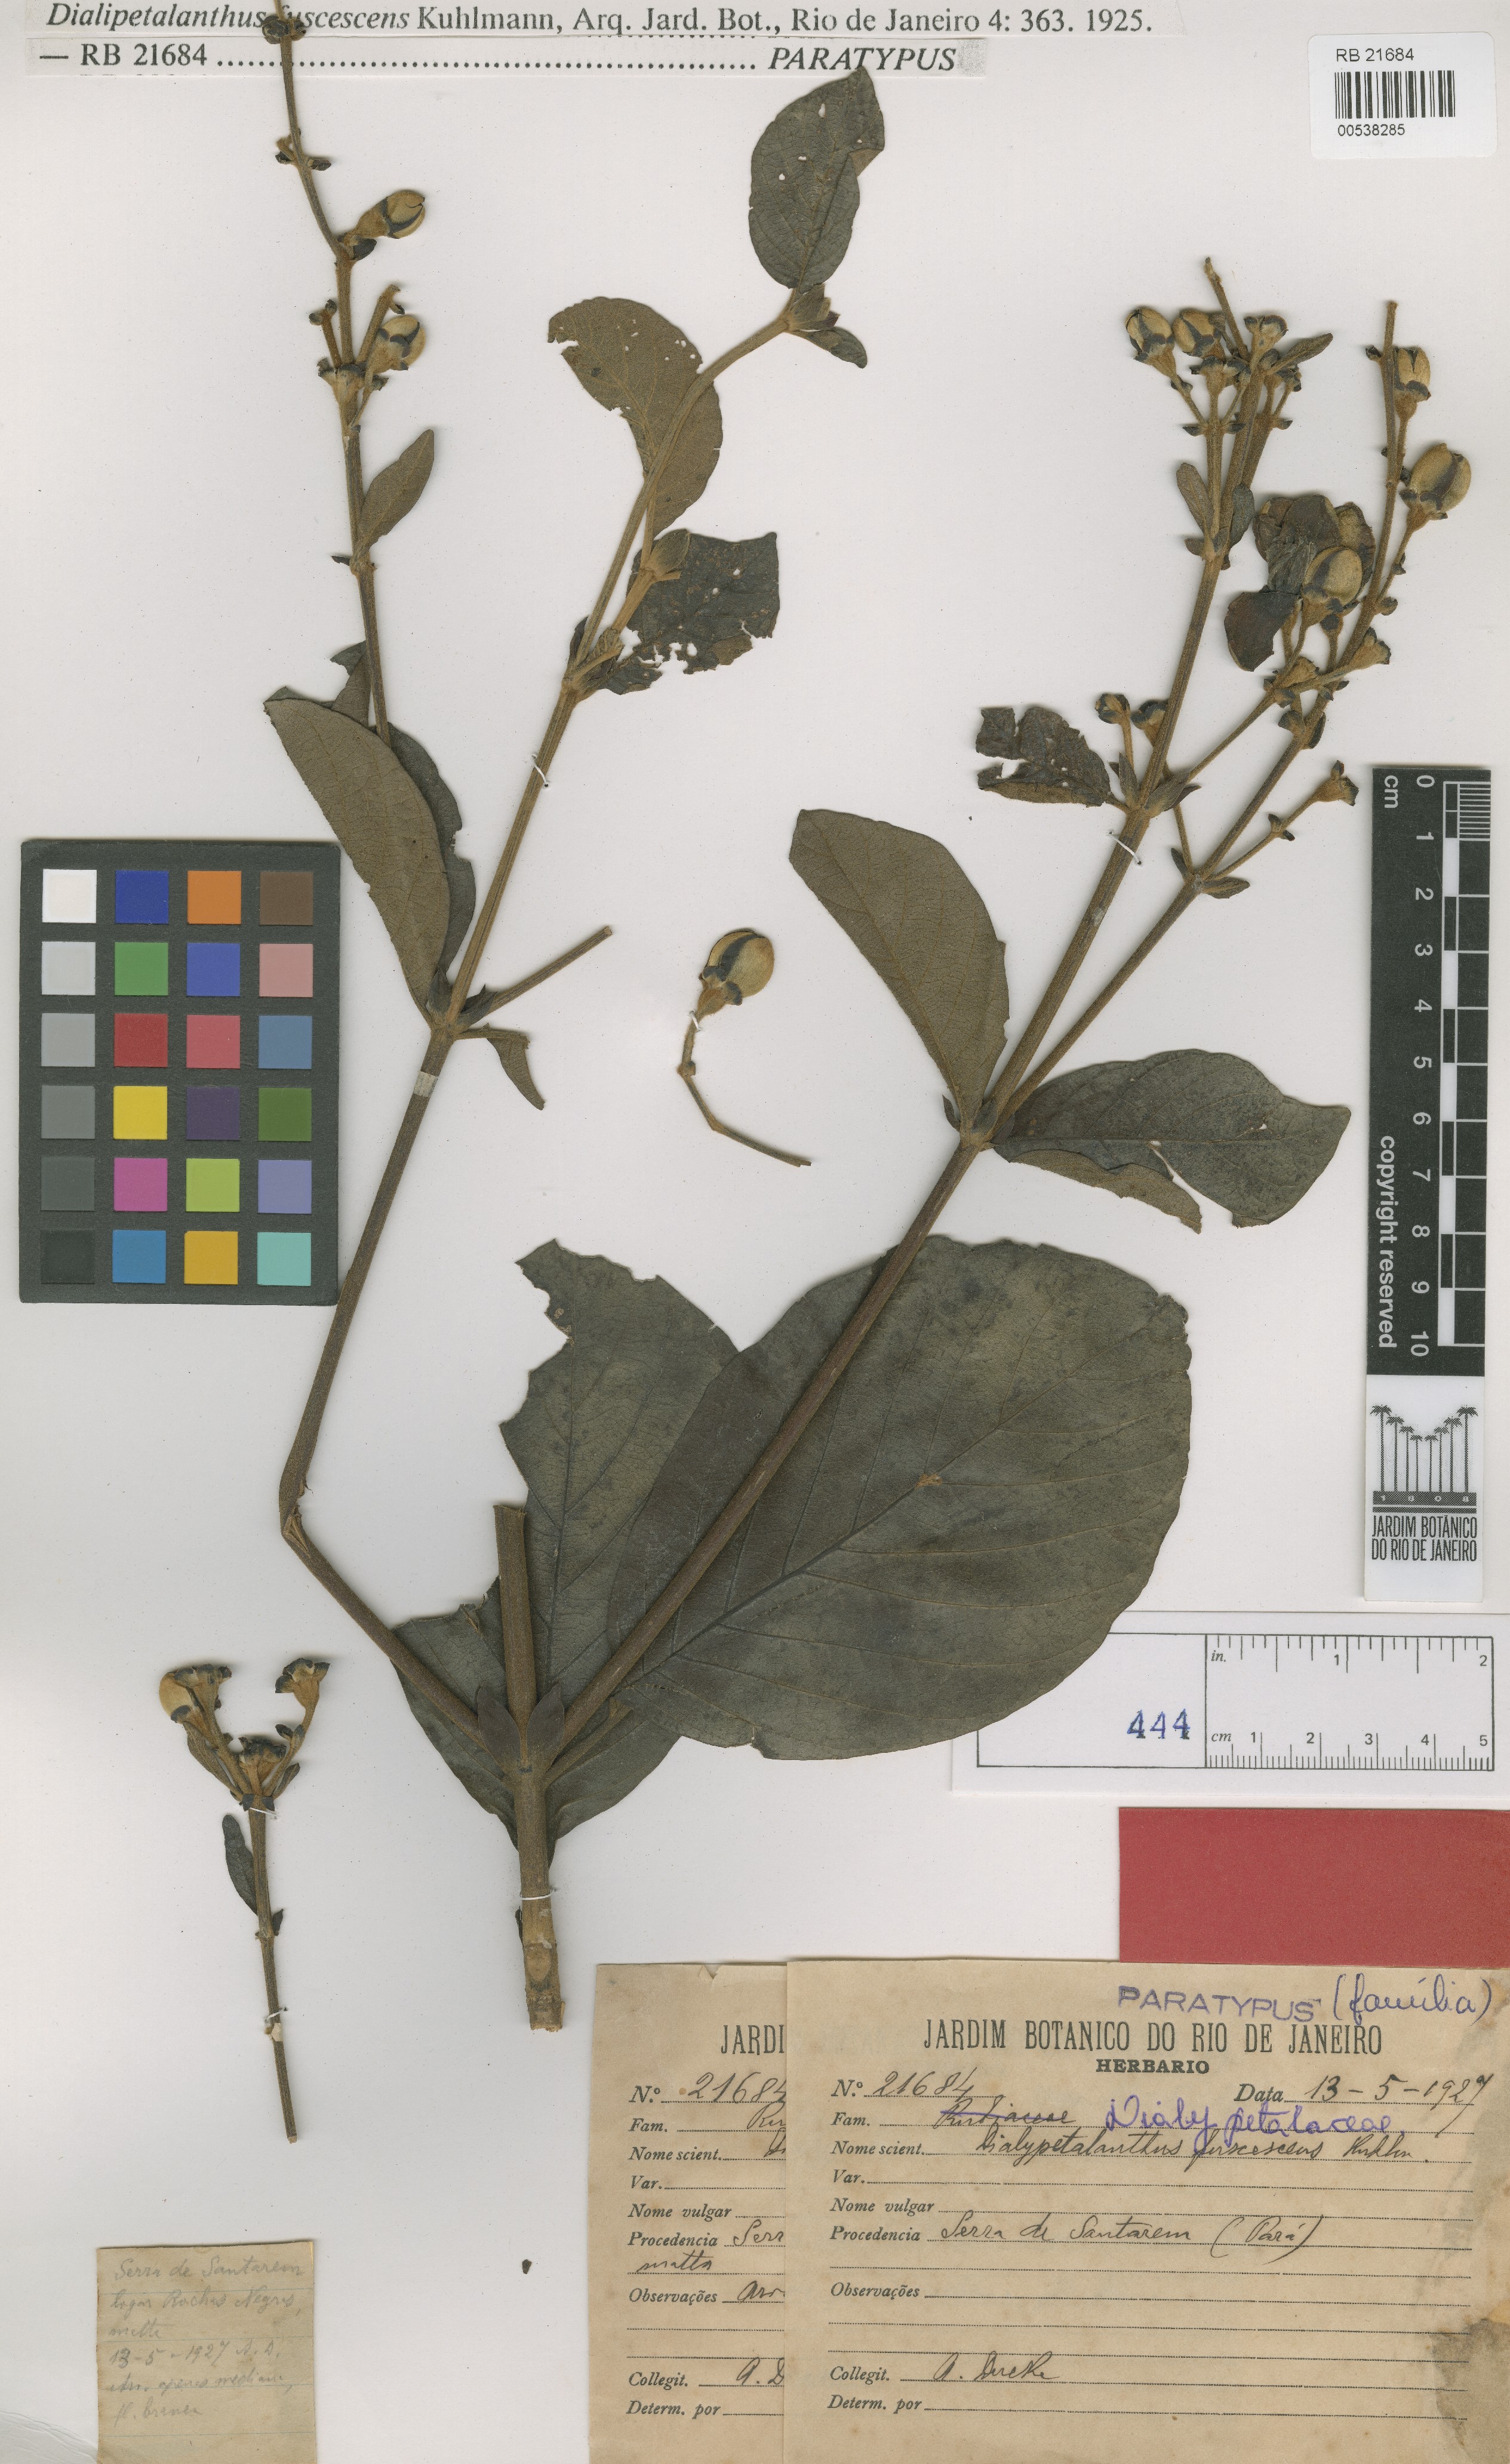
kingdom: Plantae
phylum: Tracheophyta
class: Magnoliopsida
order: Gentianales
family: Rubiaceae
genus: Dialypetalanthus
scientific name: Dialypetalanthus fuscescens
